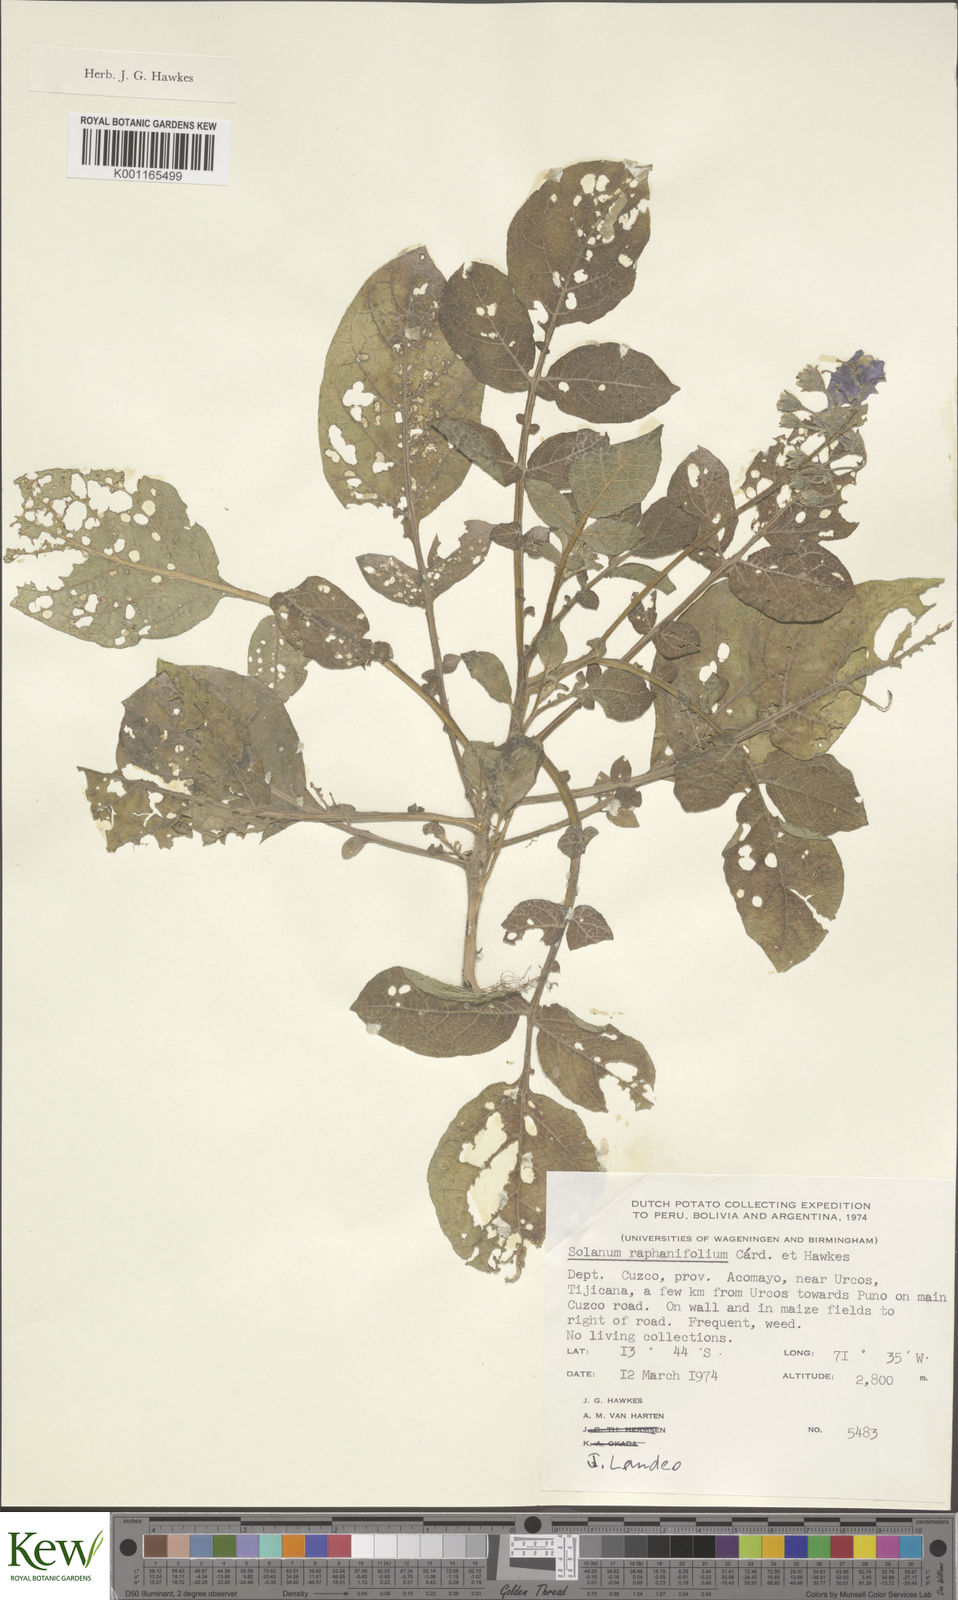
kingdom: Plantae
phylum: Tracheophyta
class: Magnoliopsida
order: Solanales
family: Solanaceae
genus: Solanum
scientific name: Solanum raphanifolium
